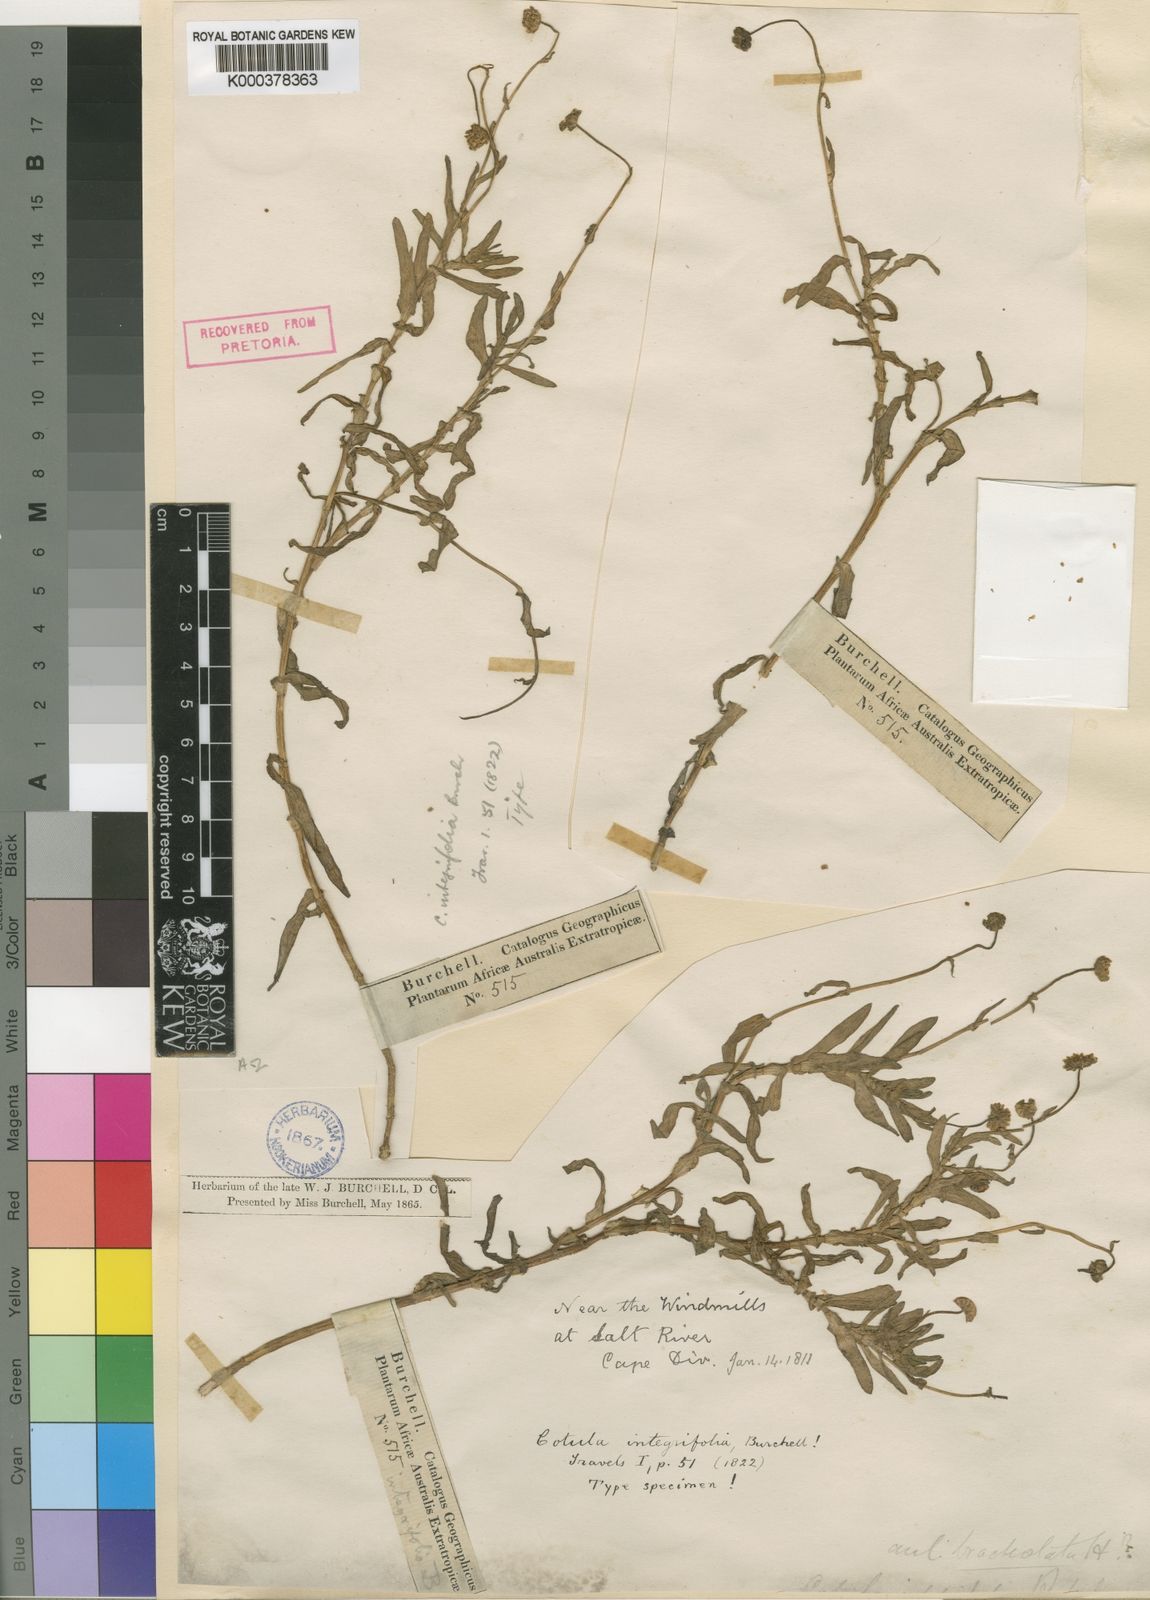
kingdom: Plantae
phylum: Tracheophyta
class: Magnoliopsida
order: Asterales
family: Asteraceae
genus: Cotula
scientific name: Cotula bracteolata
